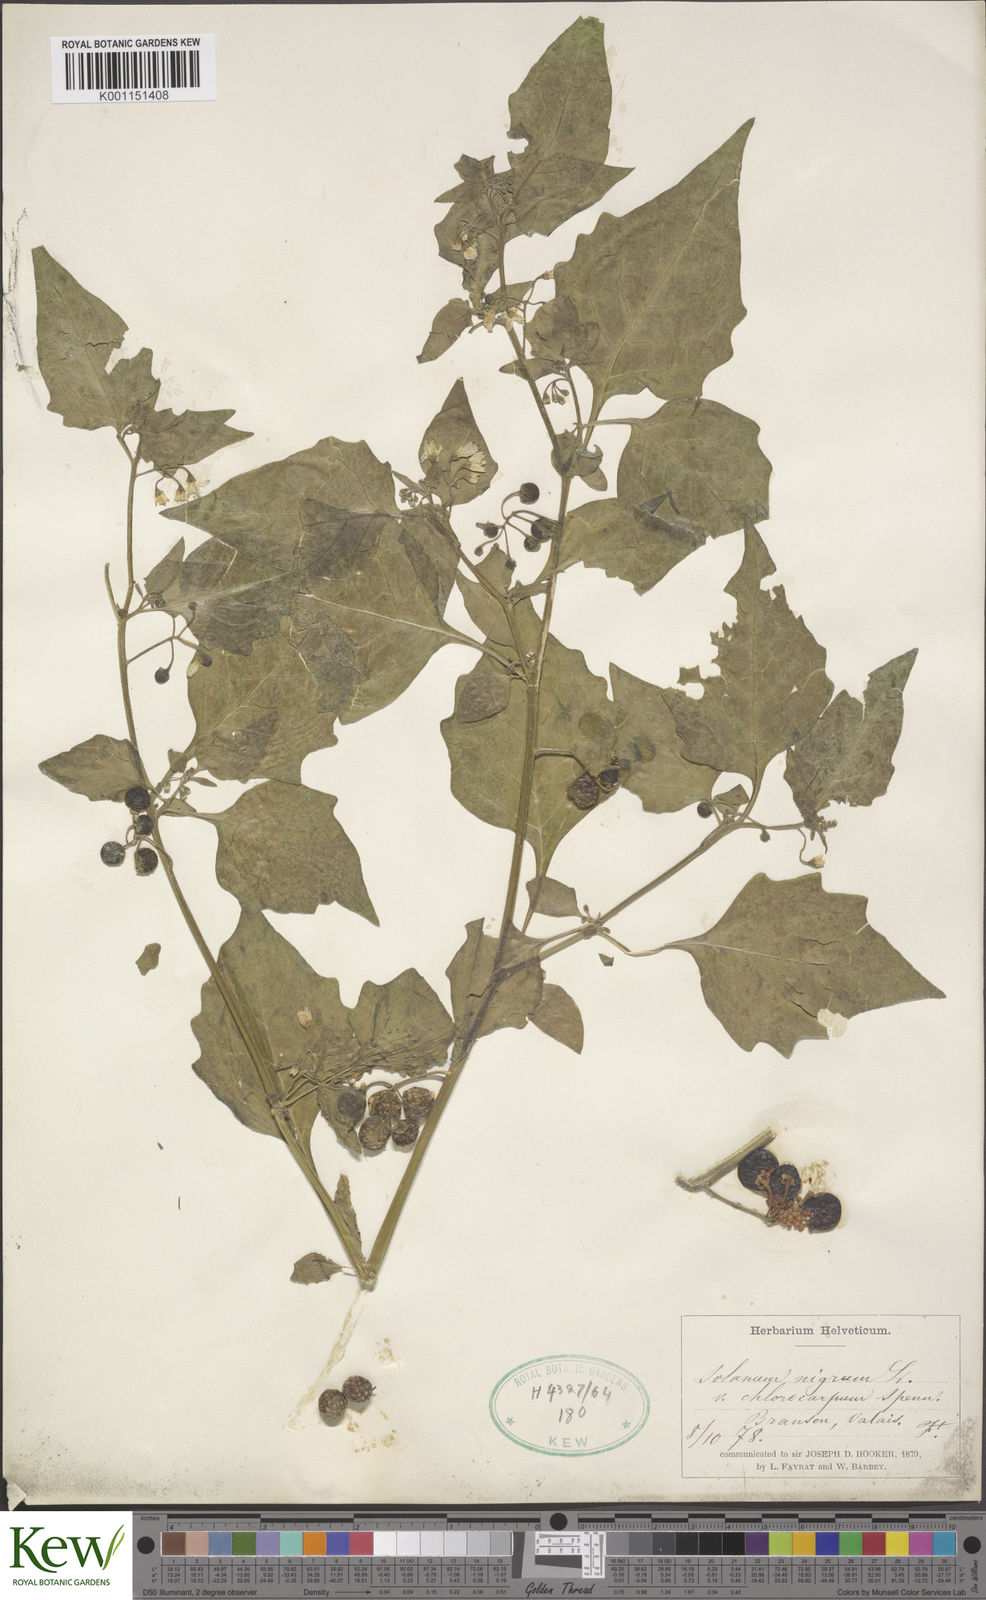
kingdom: Plantae
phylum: Tracheophyta
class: Magnoliopsida
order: Solanales
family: Solanaceae
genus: Solanum
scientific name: Solanum villosum
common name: Red nightshade
